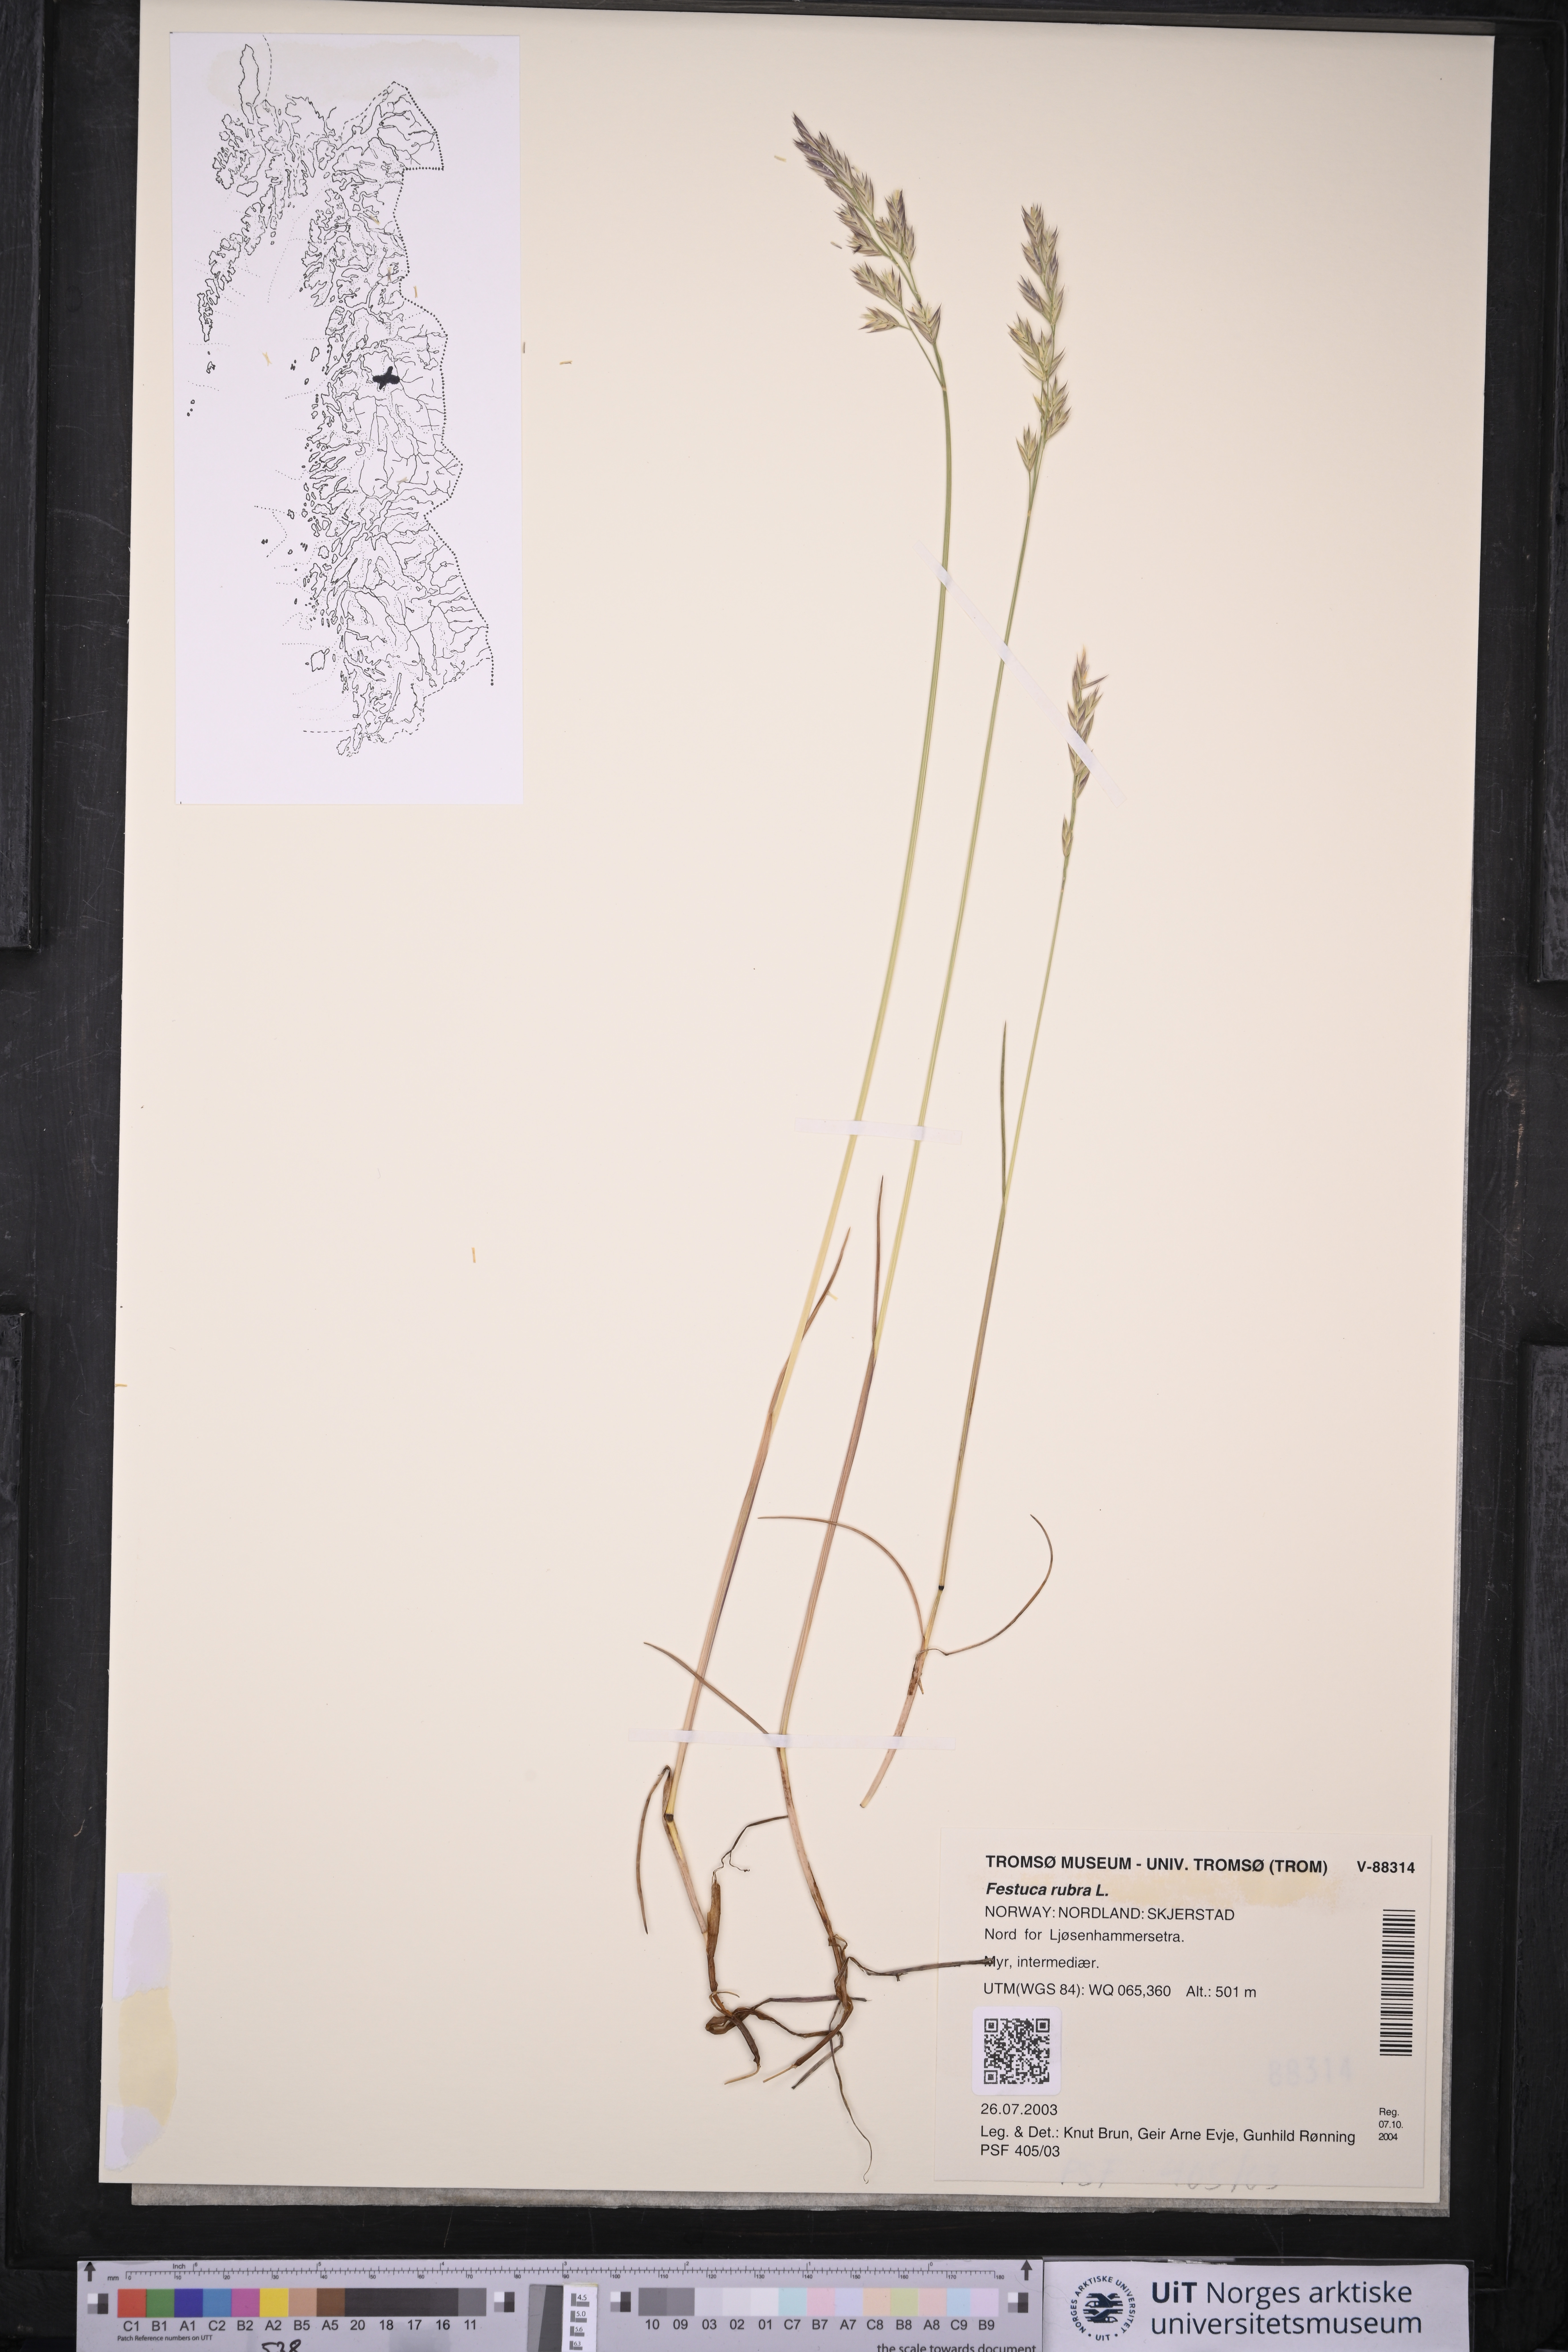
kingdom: Plantae
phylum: Tracheophyta
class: Liliopsida
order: Poales
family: Poaceae
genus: Festuca
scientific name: Festuca rubra
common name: Red fescue
